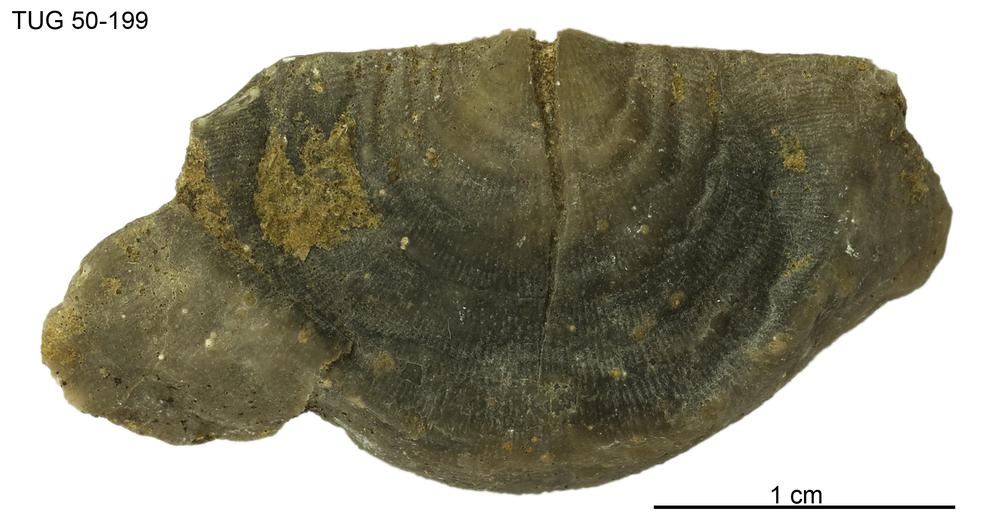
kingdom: Animalia
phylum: Brachiopoda
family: Strophomenidae
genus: Leptaena
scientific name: Leptaena Similoleptaena paucirugata
